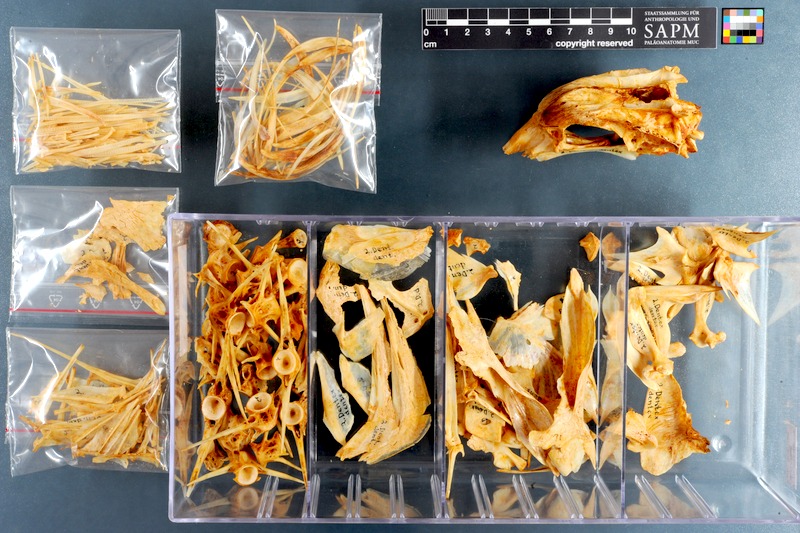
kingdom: Animalia
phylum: Chordata
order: Perciformes
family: Sparidae
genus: Dentex
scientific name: Dentex dentex
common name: Dentex
